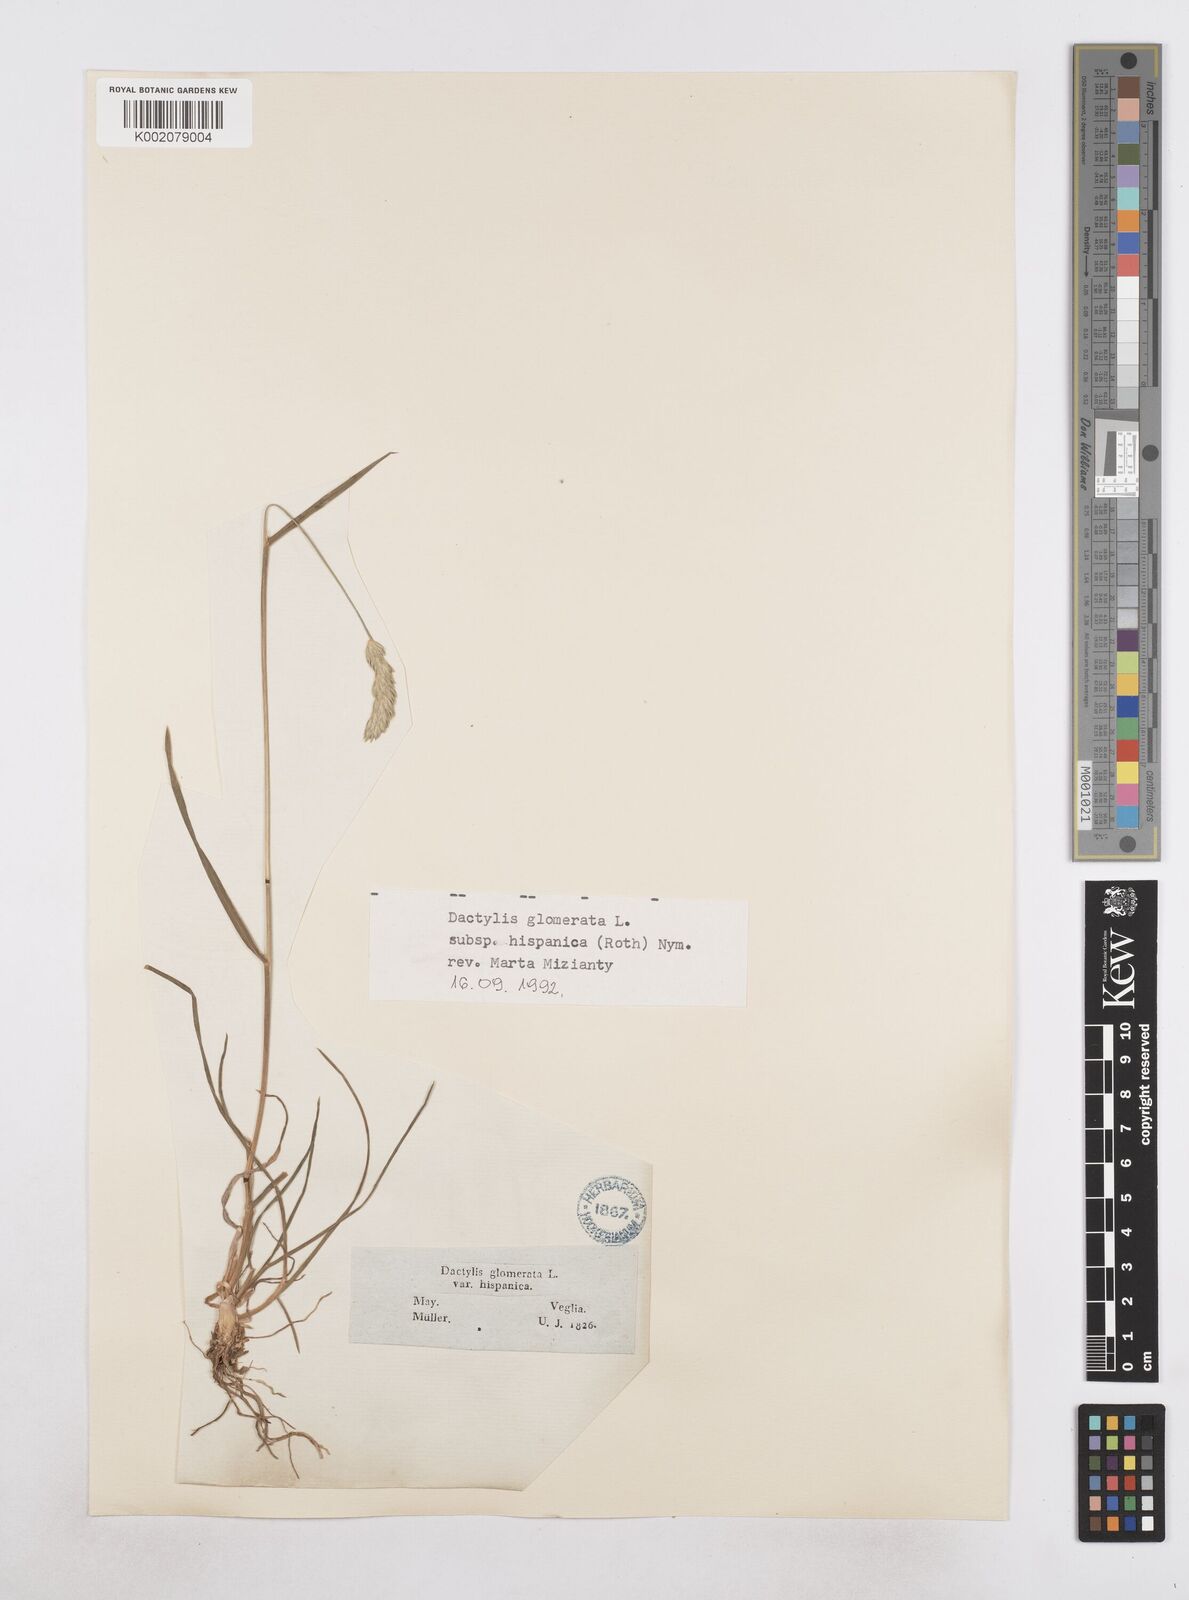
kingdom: Plantae
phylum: Tracheophyta
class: Liliopsida
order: Poales
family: Poaceae
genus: Dactylis
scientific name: Dactylis glomerata
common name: Orchardgrass
